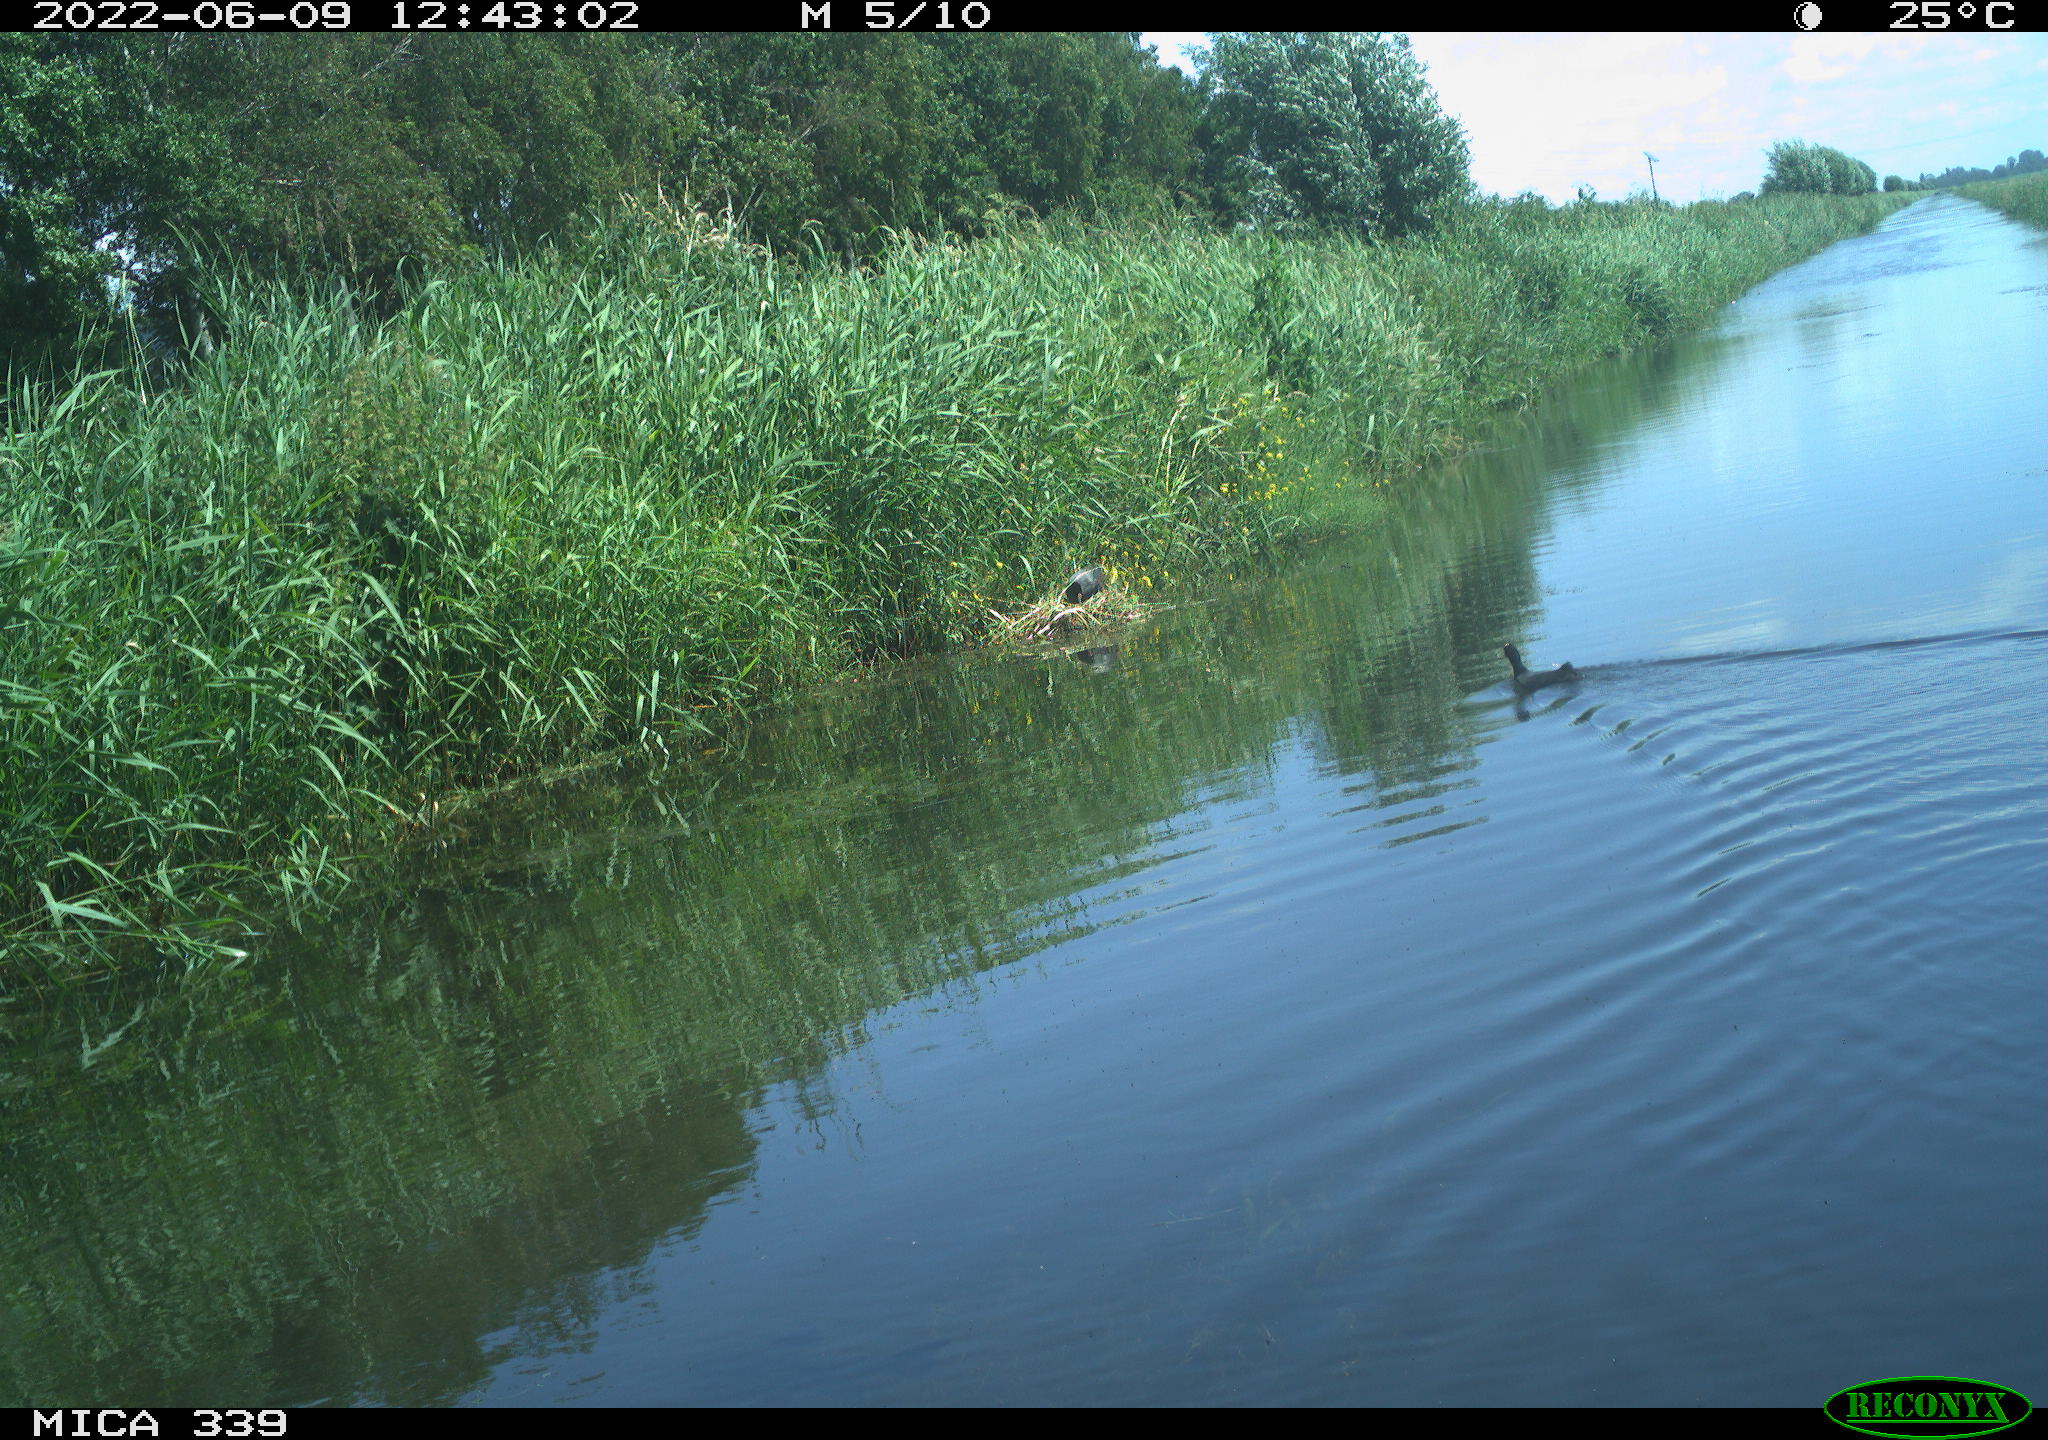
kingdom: Animalia
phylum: Chordata
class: Aves
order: Gruiformes
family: Rallidae
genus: Fulica
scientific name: Fulica atra
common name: Eurasian coot
